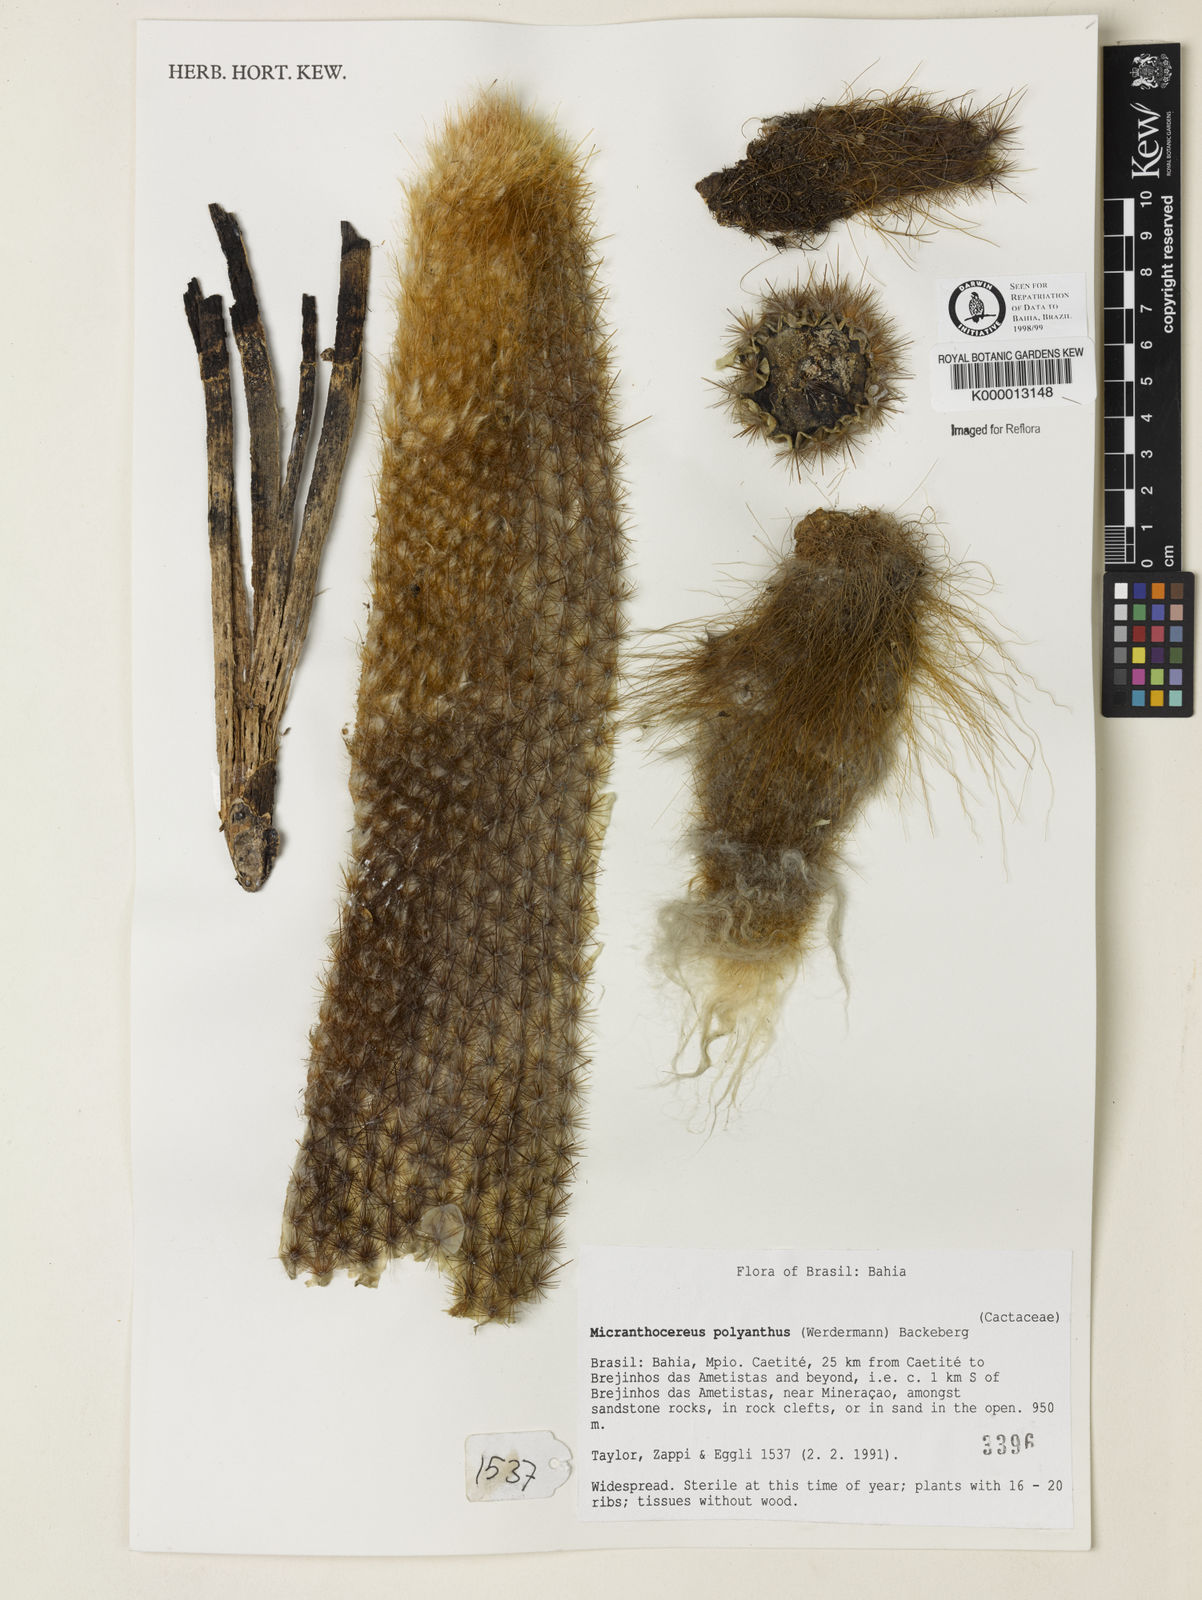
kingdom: Plantae
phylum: Tracheophyta
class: Magnoliopsida
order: Caryophyllales
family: Cactaceae
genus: Micranthocereus
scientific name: Micranthocereus polyanthus
